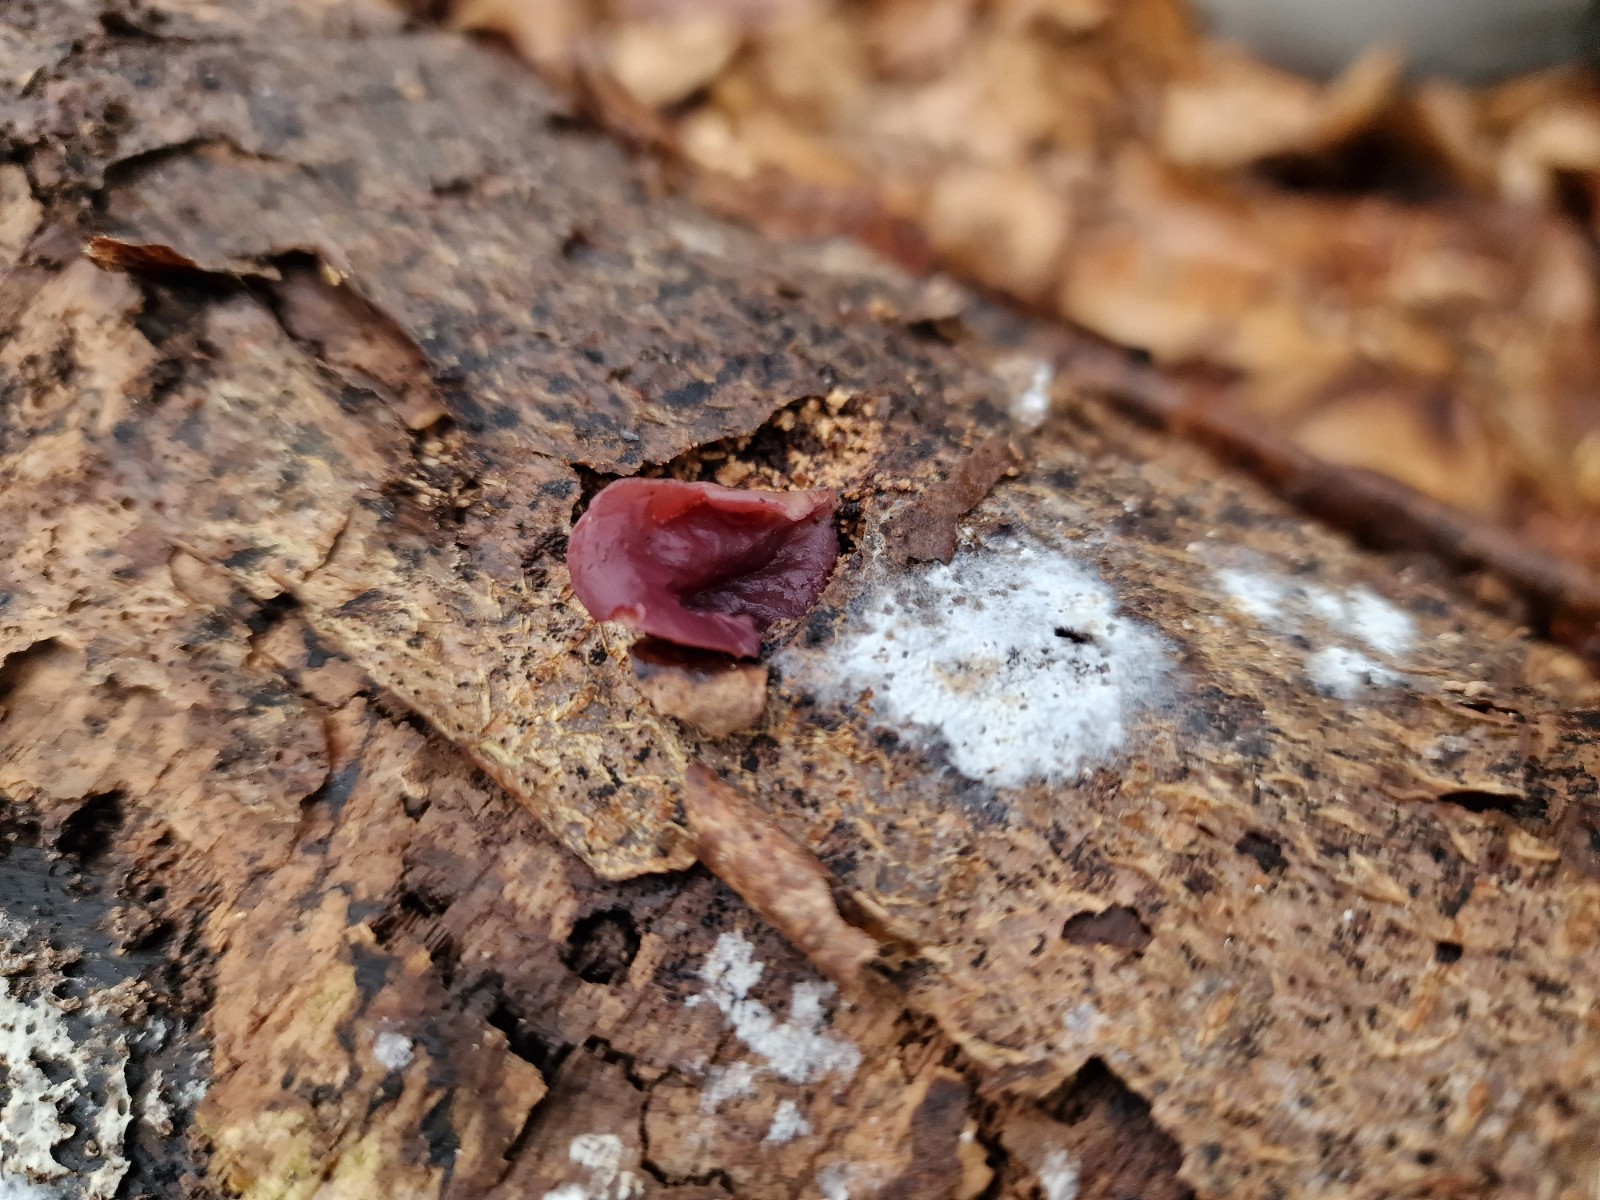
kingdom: Fungi
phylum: Ascomycota
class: Leotiomycetes
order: Helotiales
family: Gelatinodiscaceae
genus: Ascocoryne
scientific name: Ascocoryne cylichnium
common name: stor sejskive
